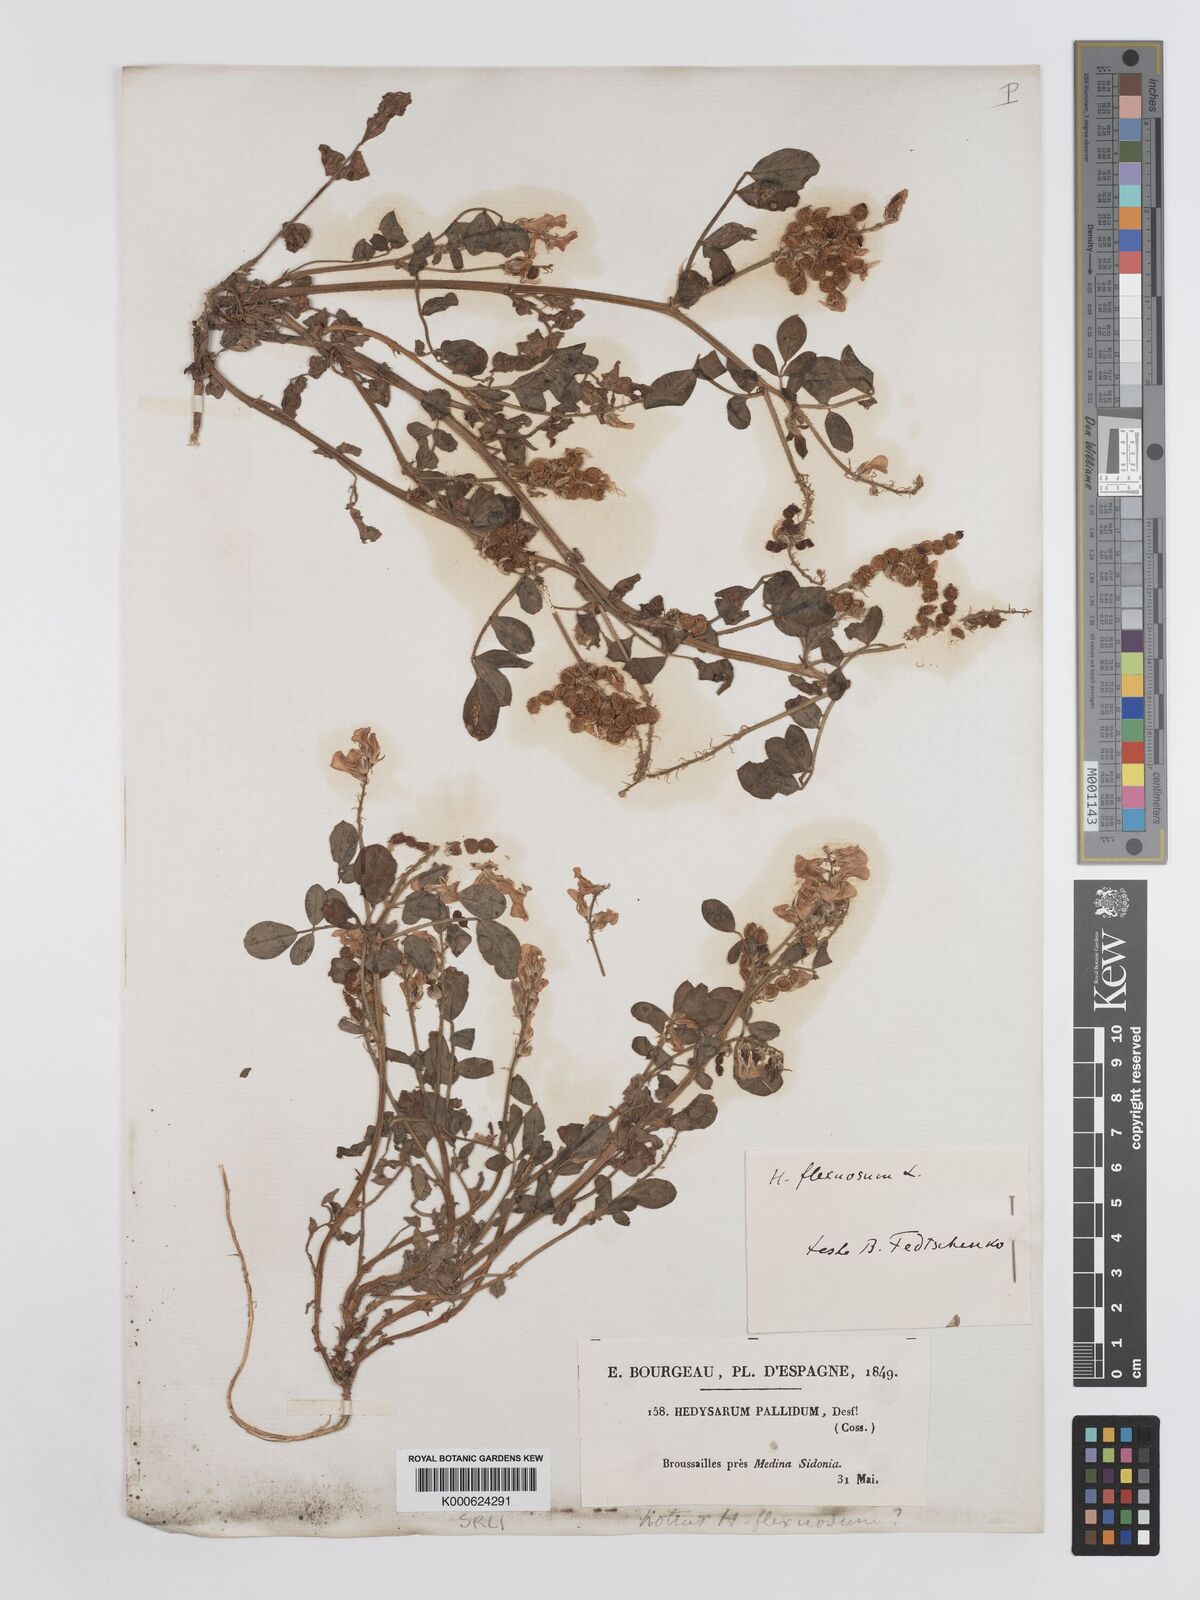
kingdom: Plantae
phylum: Tracheophyta
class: Magnoliopsida
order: Fabales
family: Fabaceae
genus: Sulla
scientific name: Sulla flexuosa
